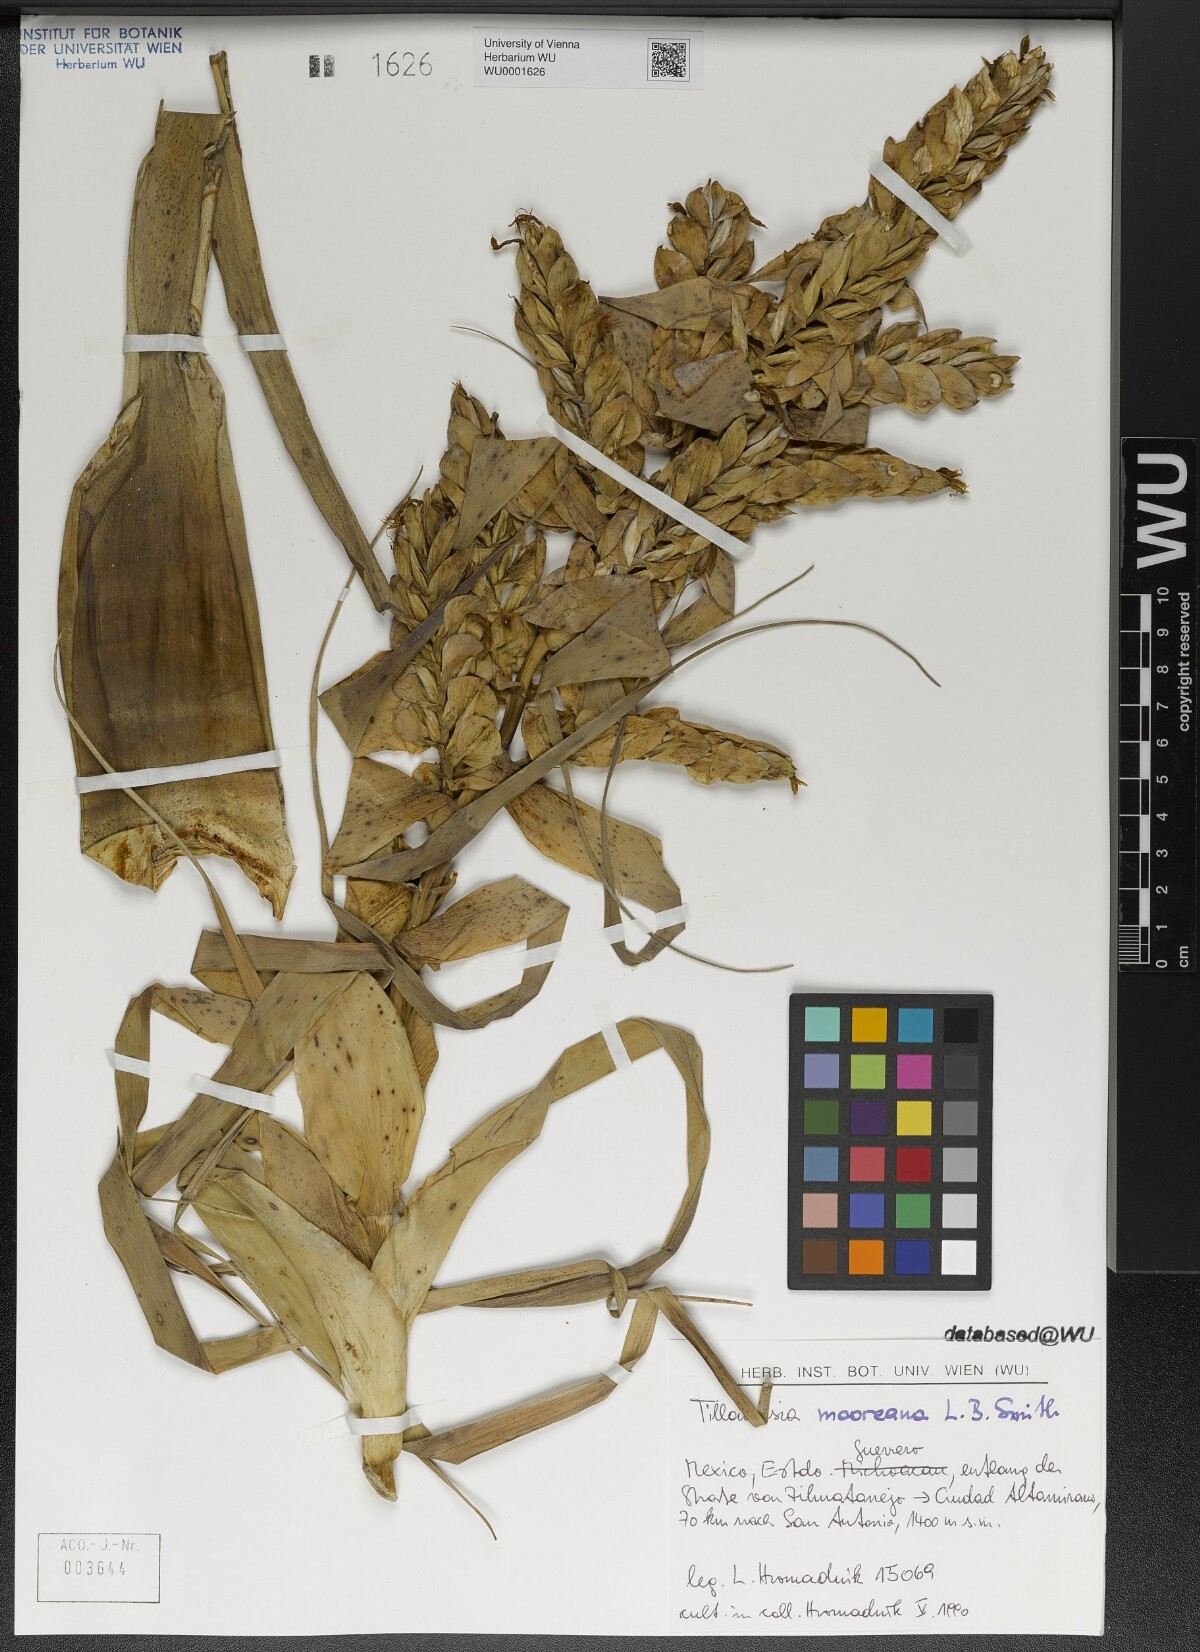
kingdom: Plantae
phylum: Tracheophyta
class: Liliopsida
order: Poales
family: Bromeliaceae
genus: Tillandsia
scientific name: Tillandsia mooreana
